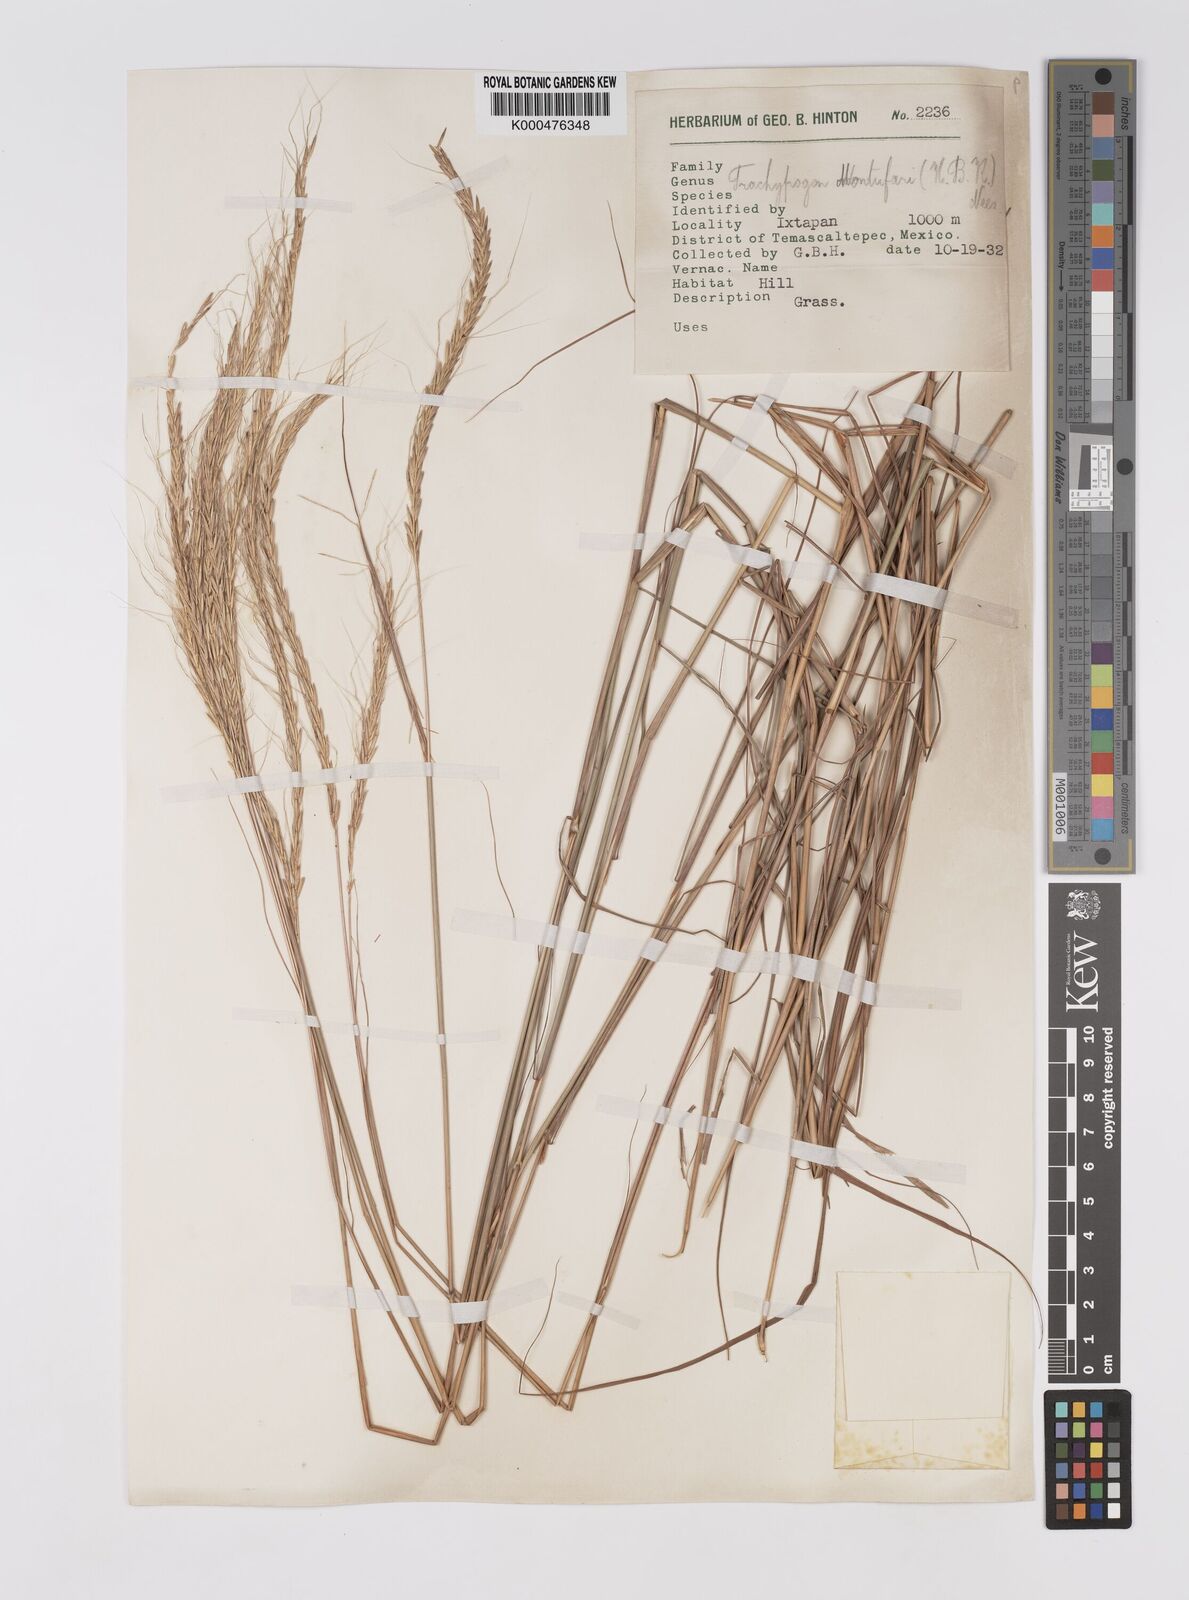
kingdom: Plantae
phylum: Tracheophyta
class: Liliopsida
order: Poales
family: Poaceae
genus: Trachypogon
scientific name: Trachypogon spicatus
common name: Crinkle-awn
